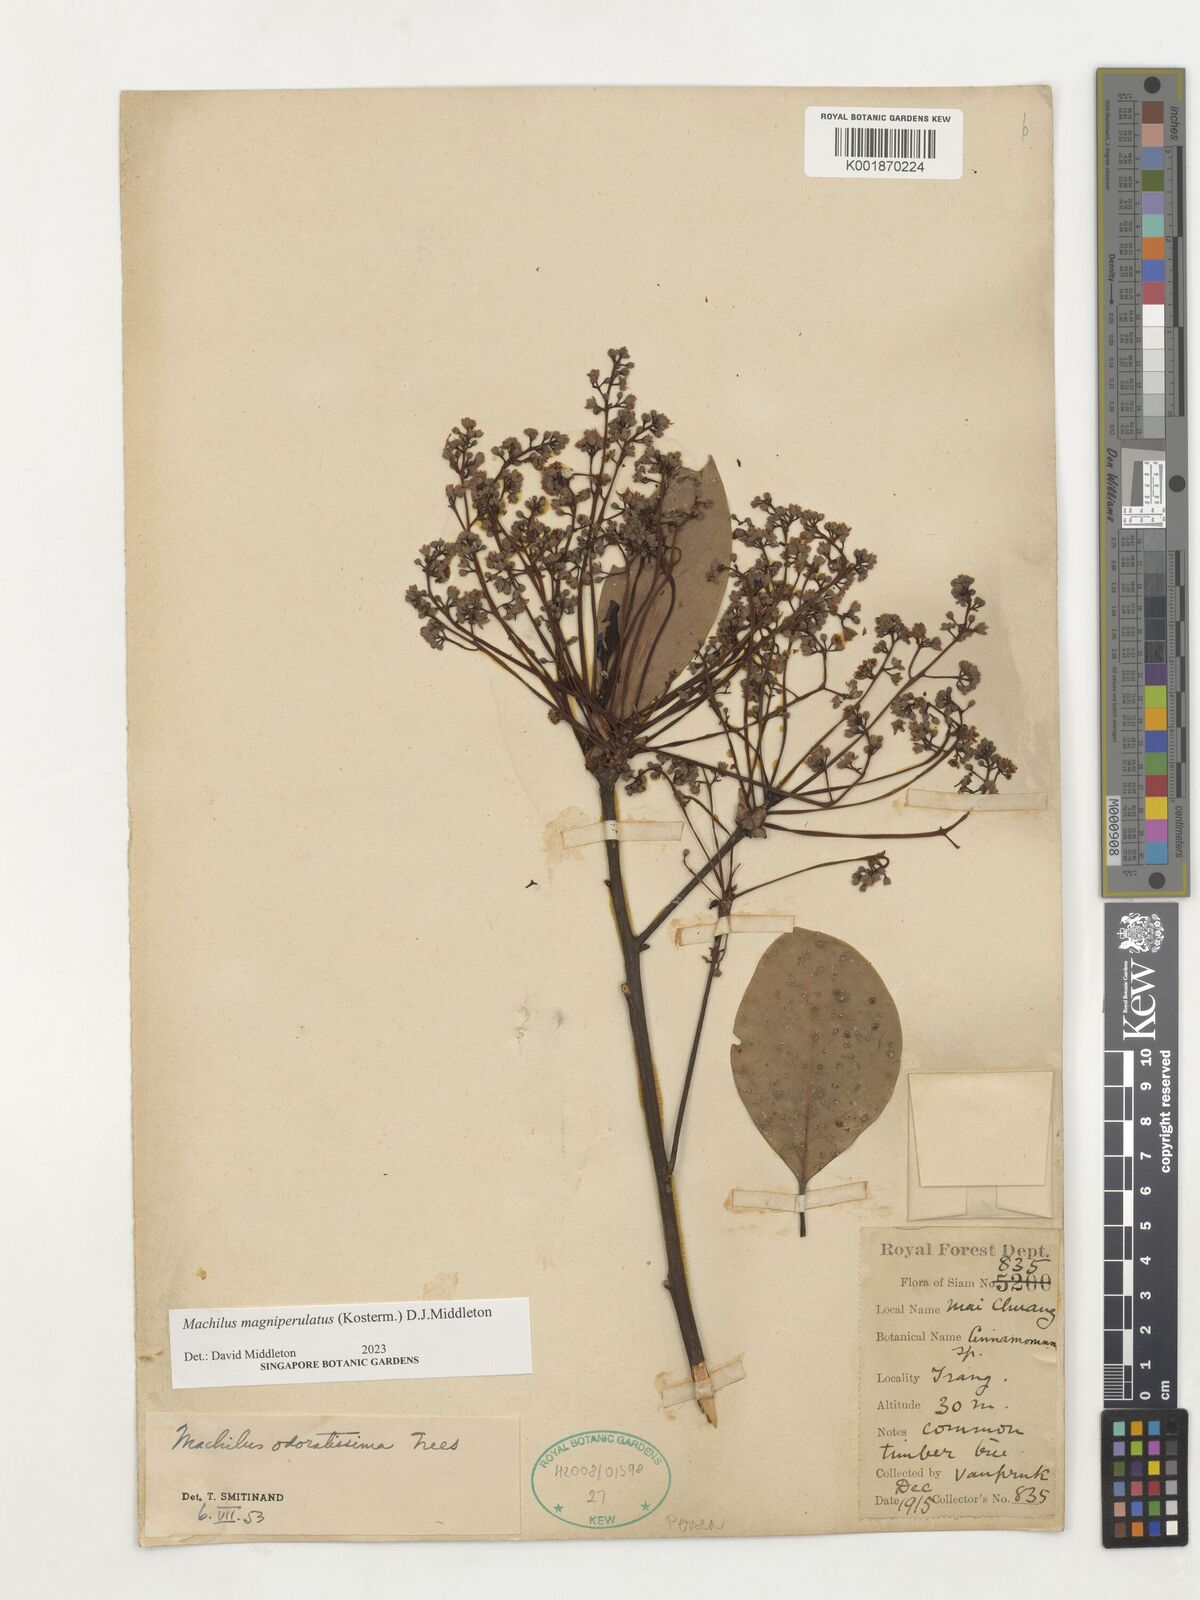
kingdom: Plantae
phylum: Tracheophyta
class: Magnoliopsida
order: Laurales
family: Lauraceae
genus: Machilus
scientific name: Machilus
